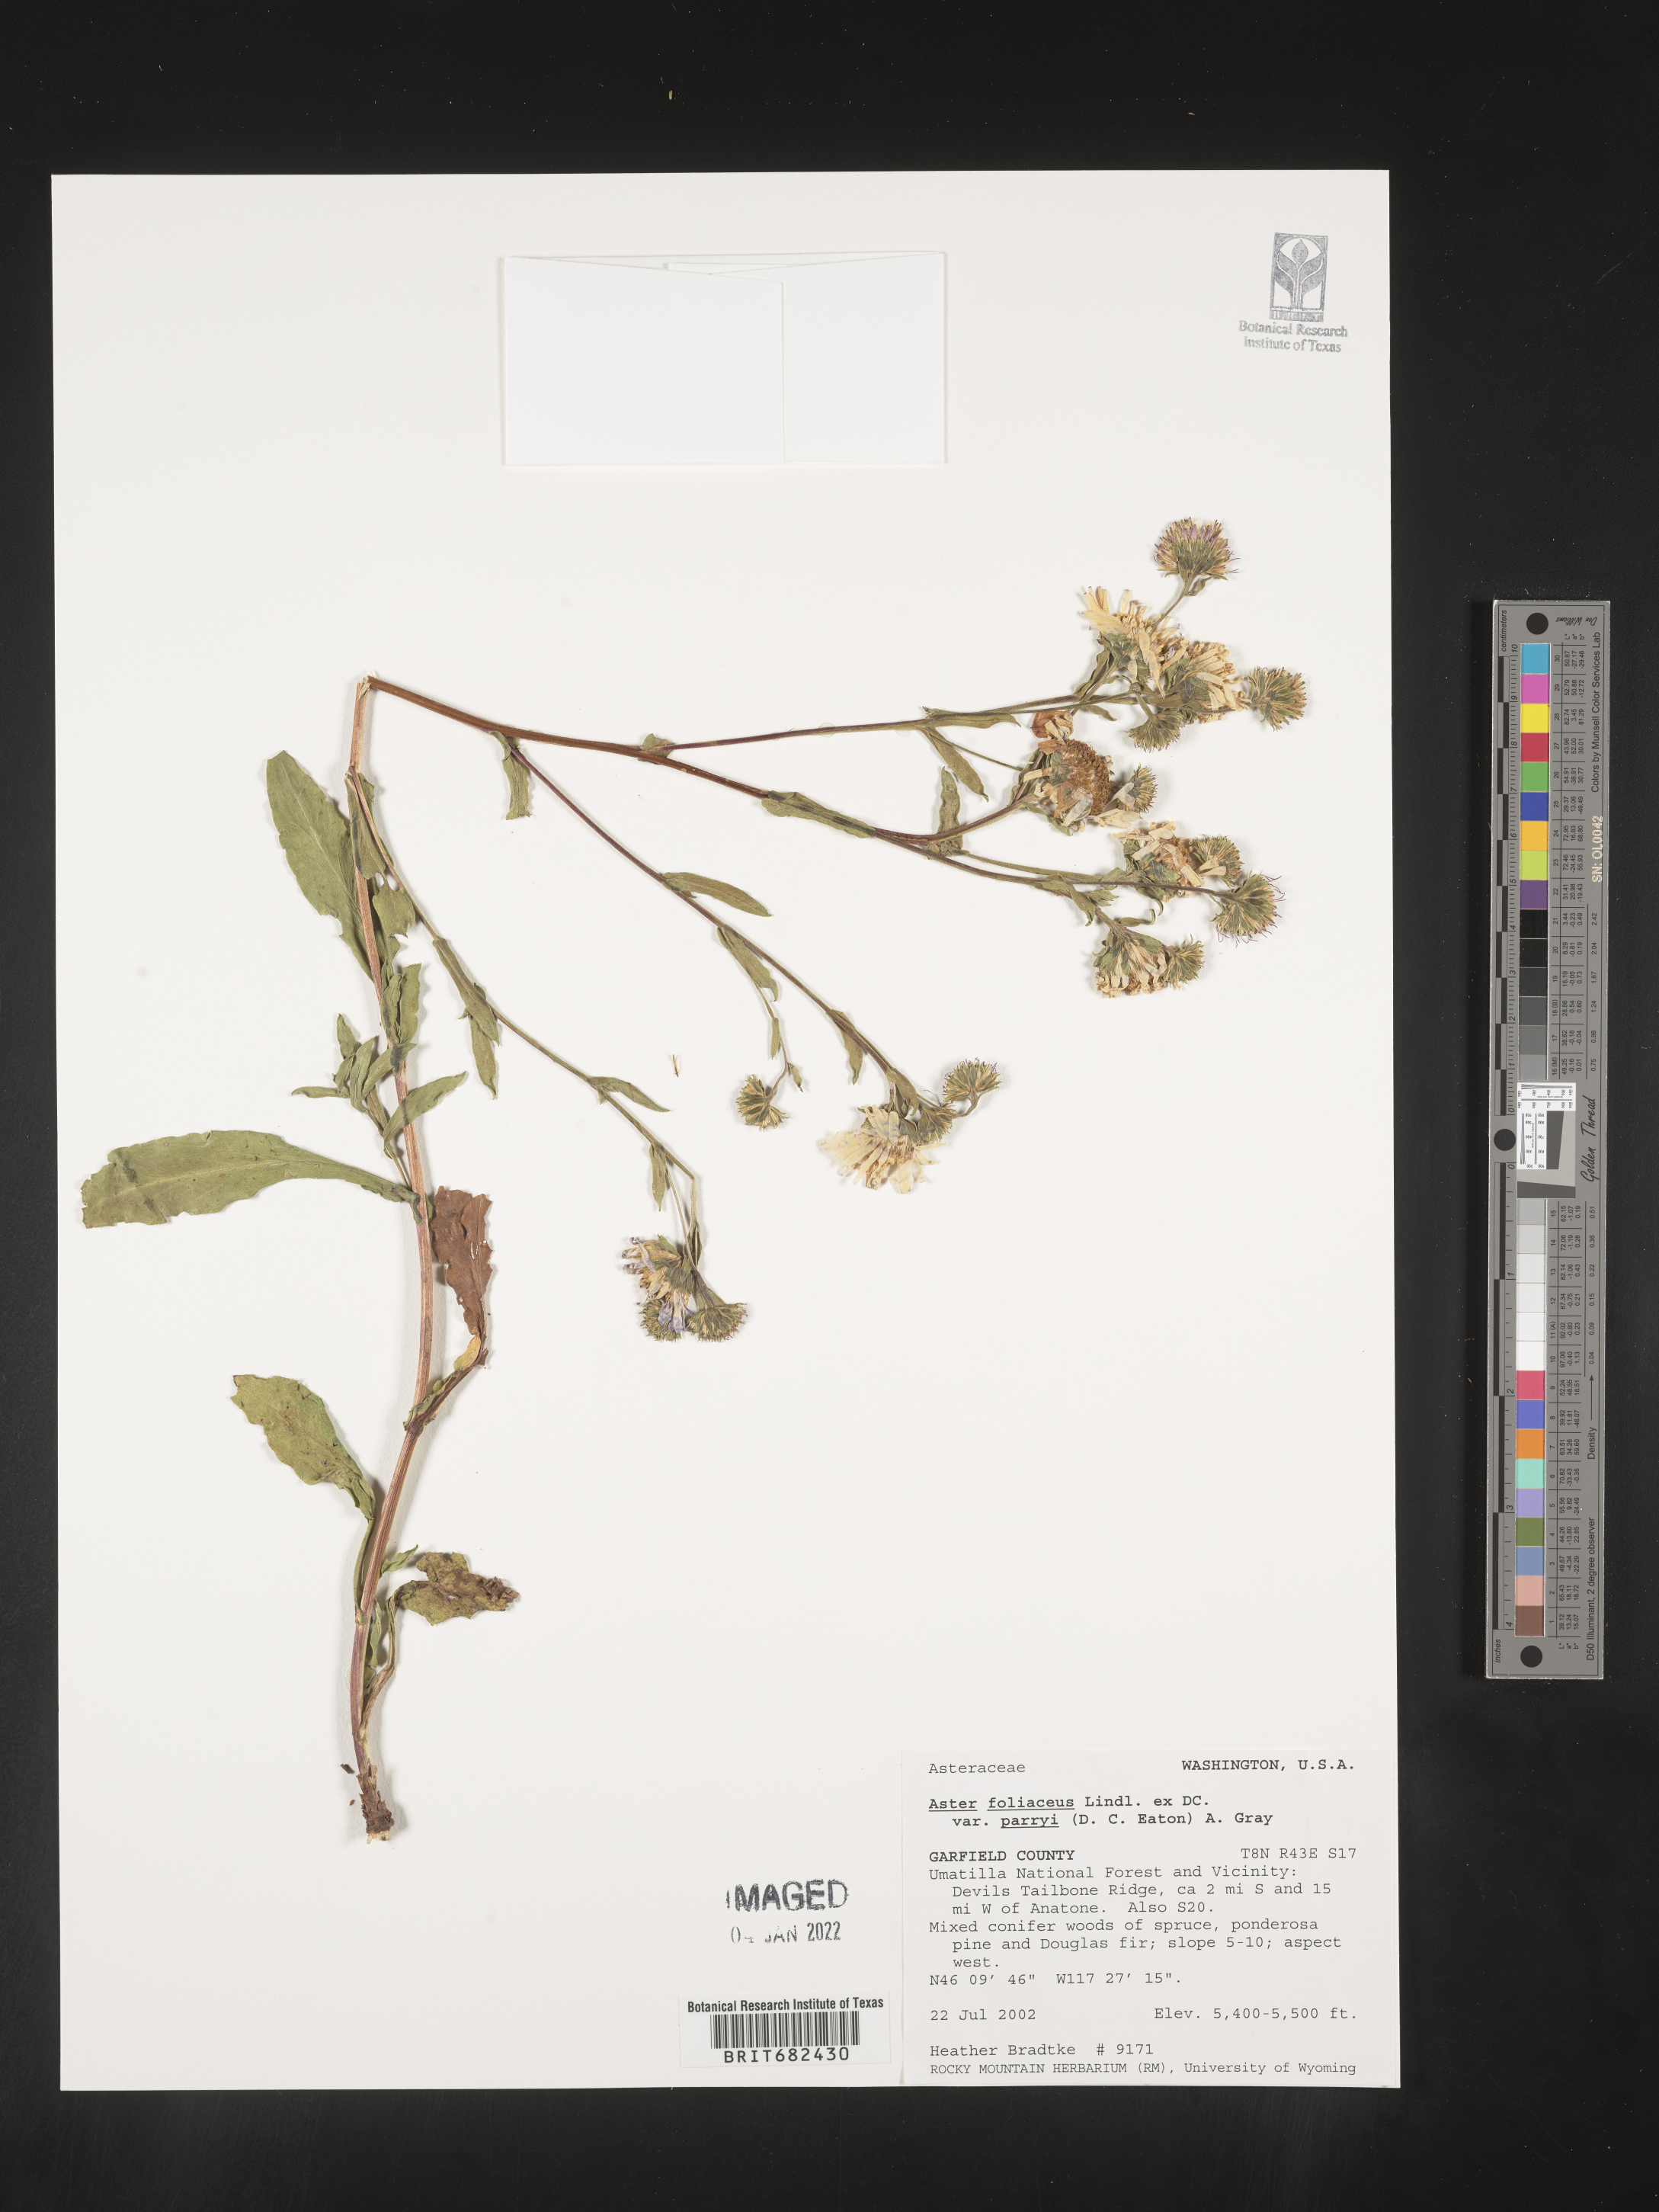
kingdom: Plantae
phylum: Tracheophyta
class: Magnoliopsida
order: Asterales
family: Asteraceae
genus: Aster
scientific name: Aster
